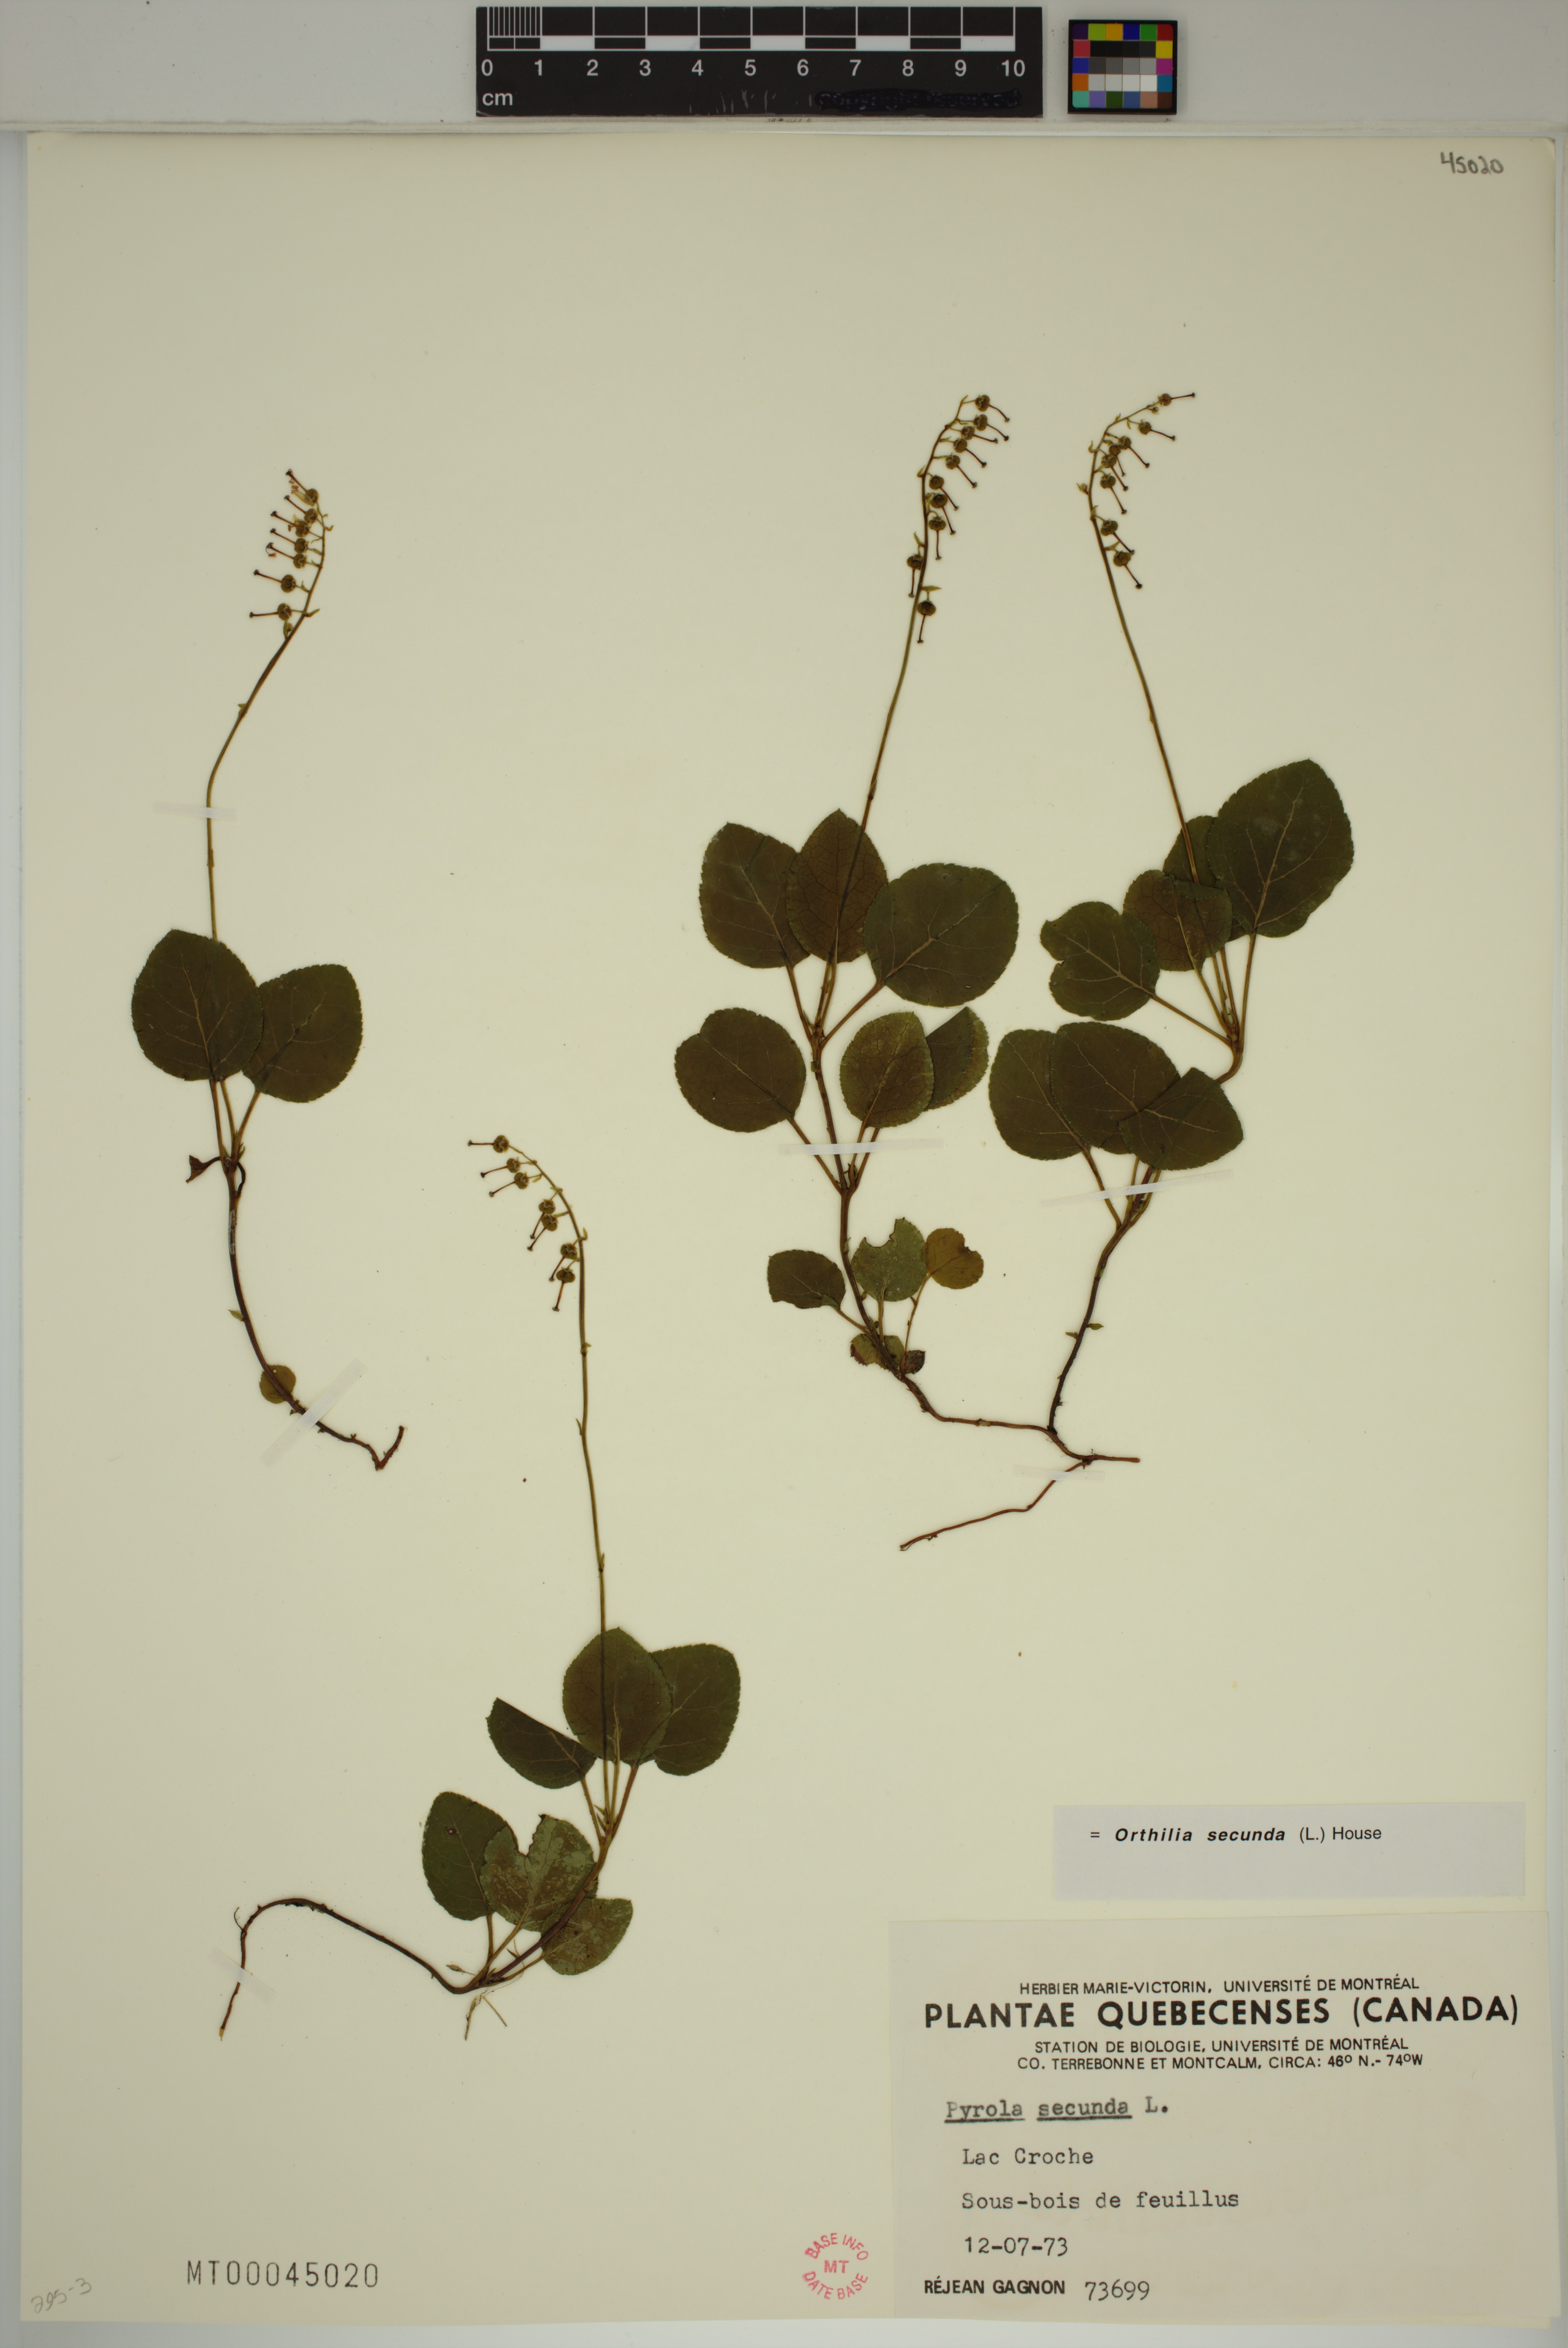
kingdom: Plantae
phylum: Tracheophyta
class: Magnoliopsida
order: Ericales
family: Ericaceae
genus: Orthilia
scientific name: Orthilia secunda
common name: One-sided orthilia
